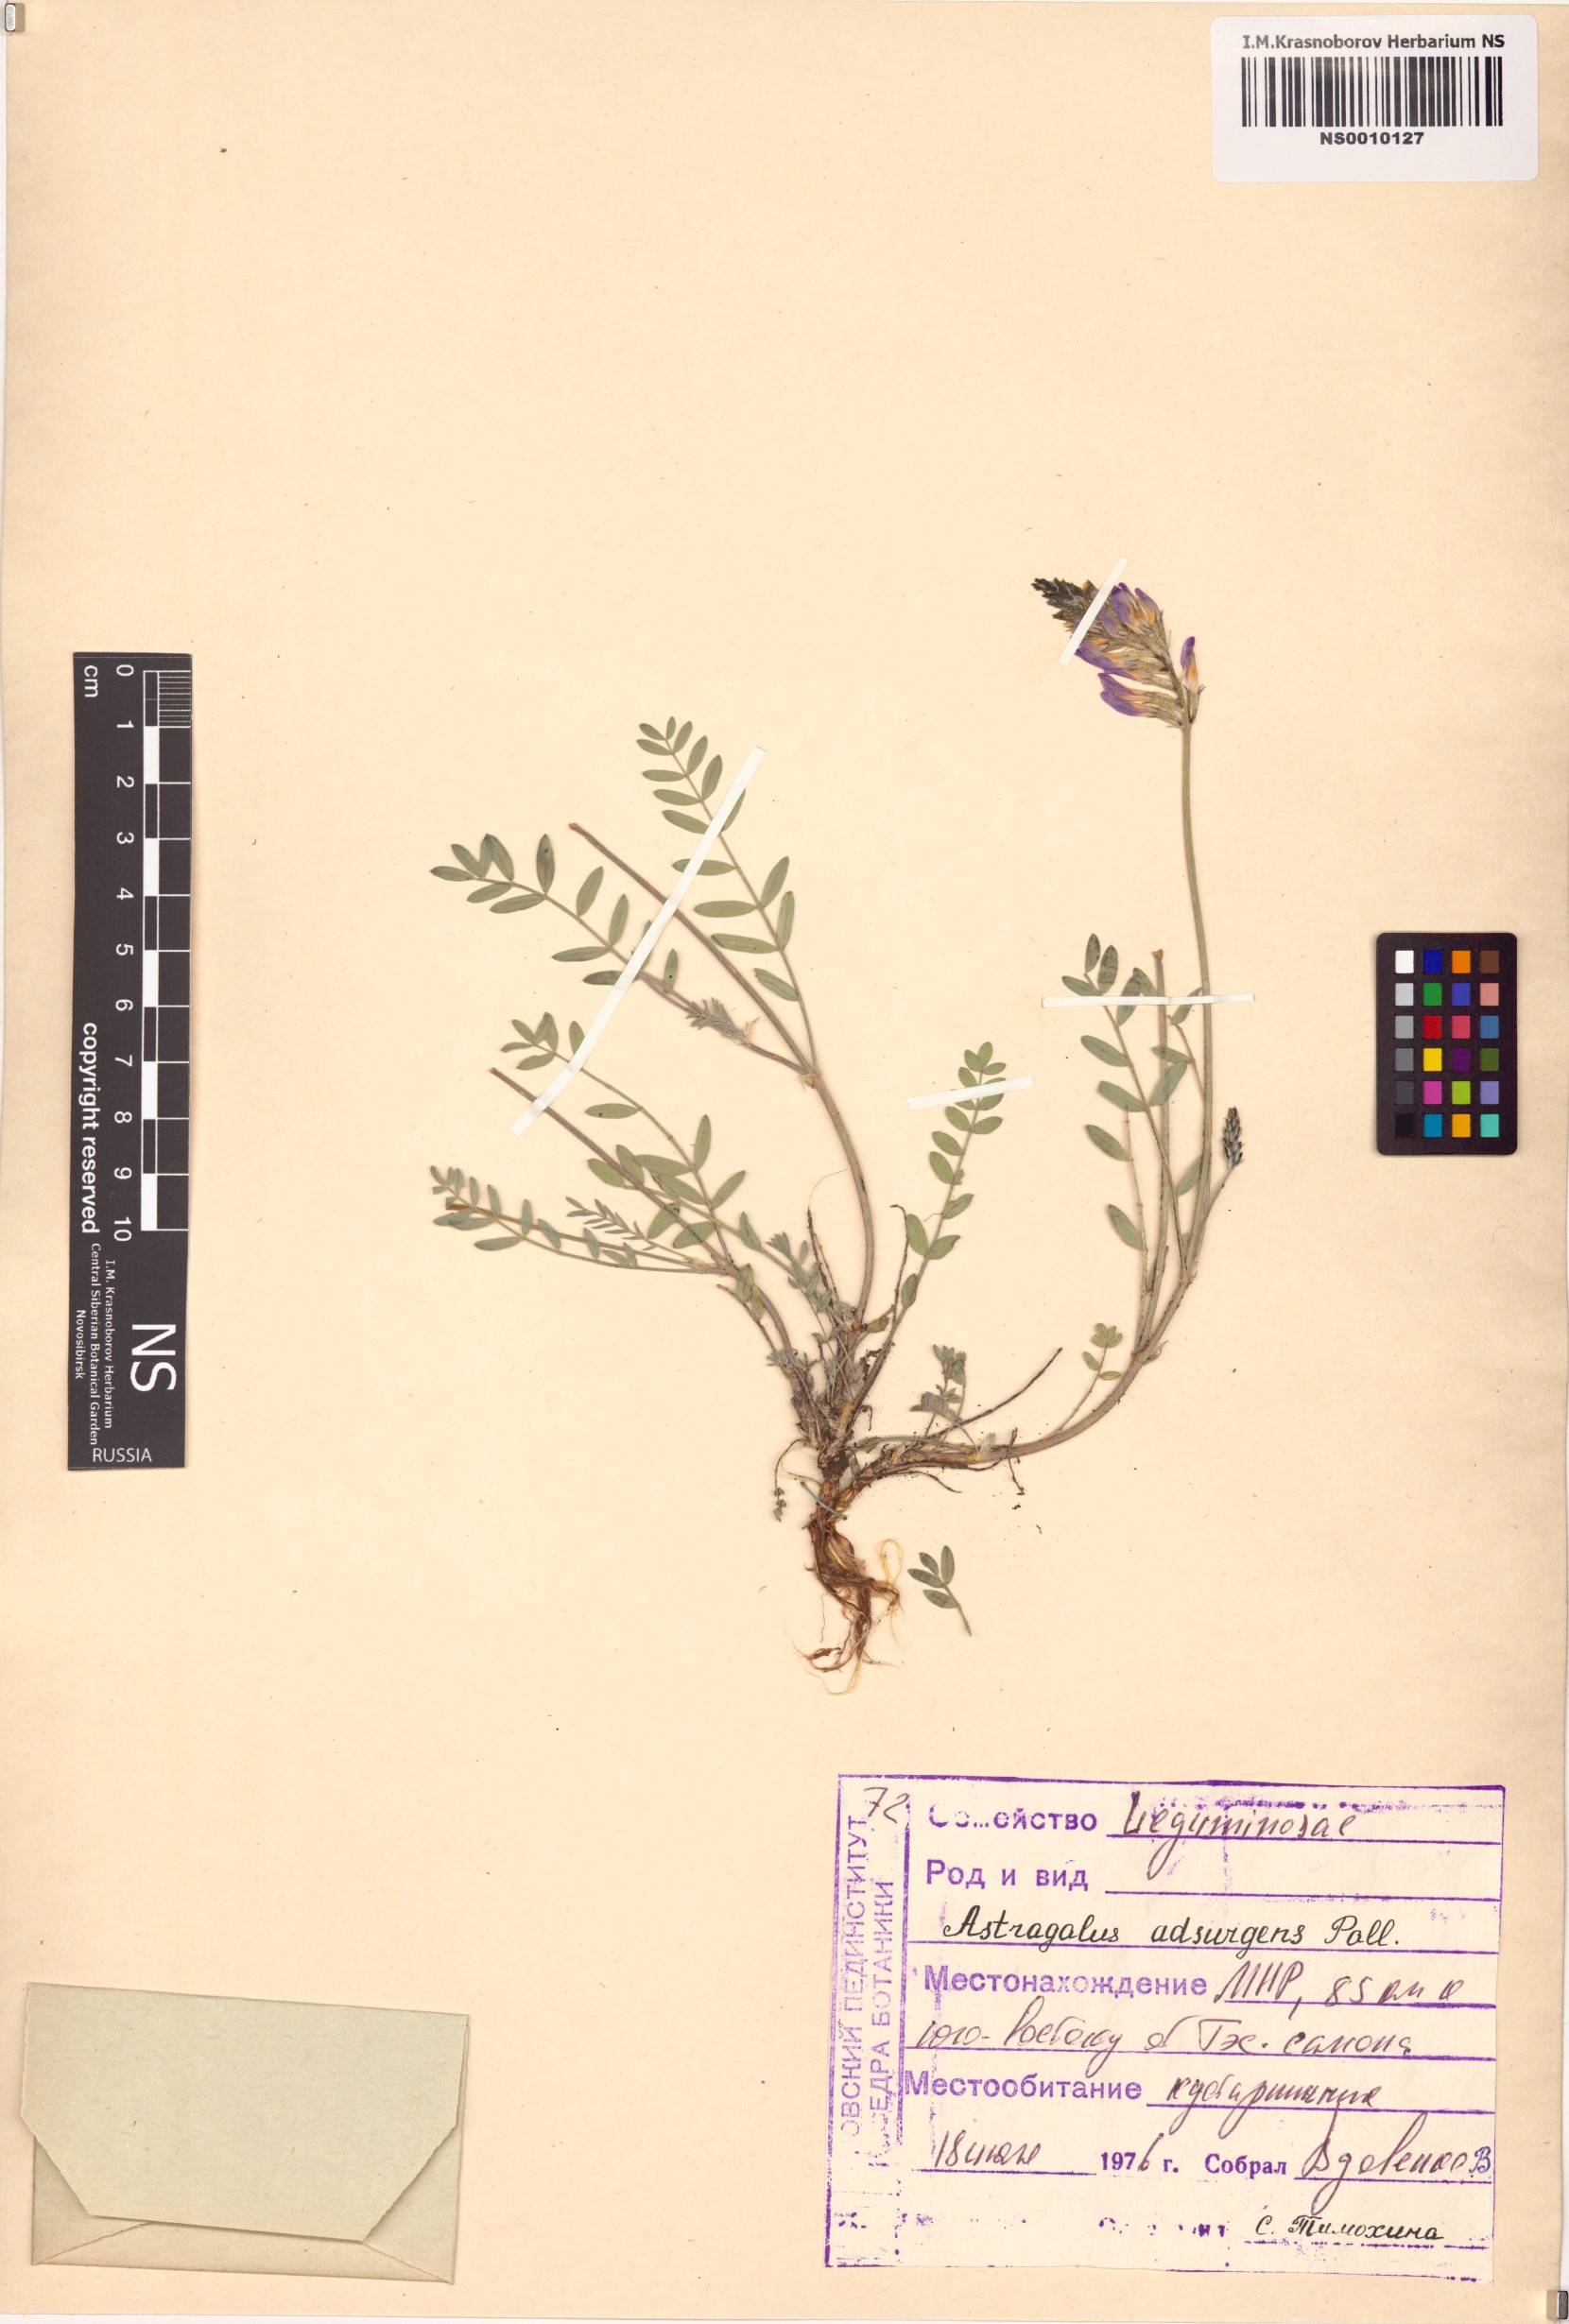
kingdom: Plantae
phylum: Tracheophyta
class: Magnoliopsida
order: Fabales
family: Fabaceae
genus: Astragalus
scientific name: Astragalus laxmannii
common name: Laxmann's milk-vetch
